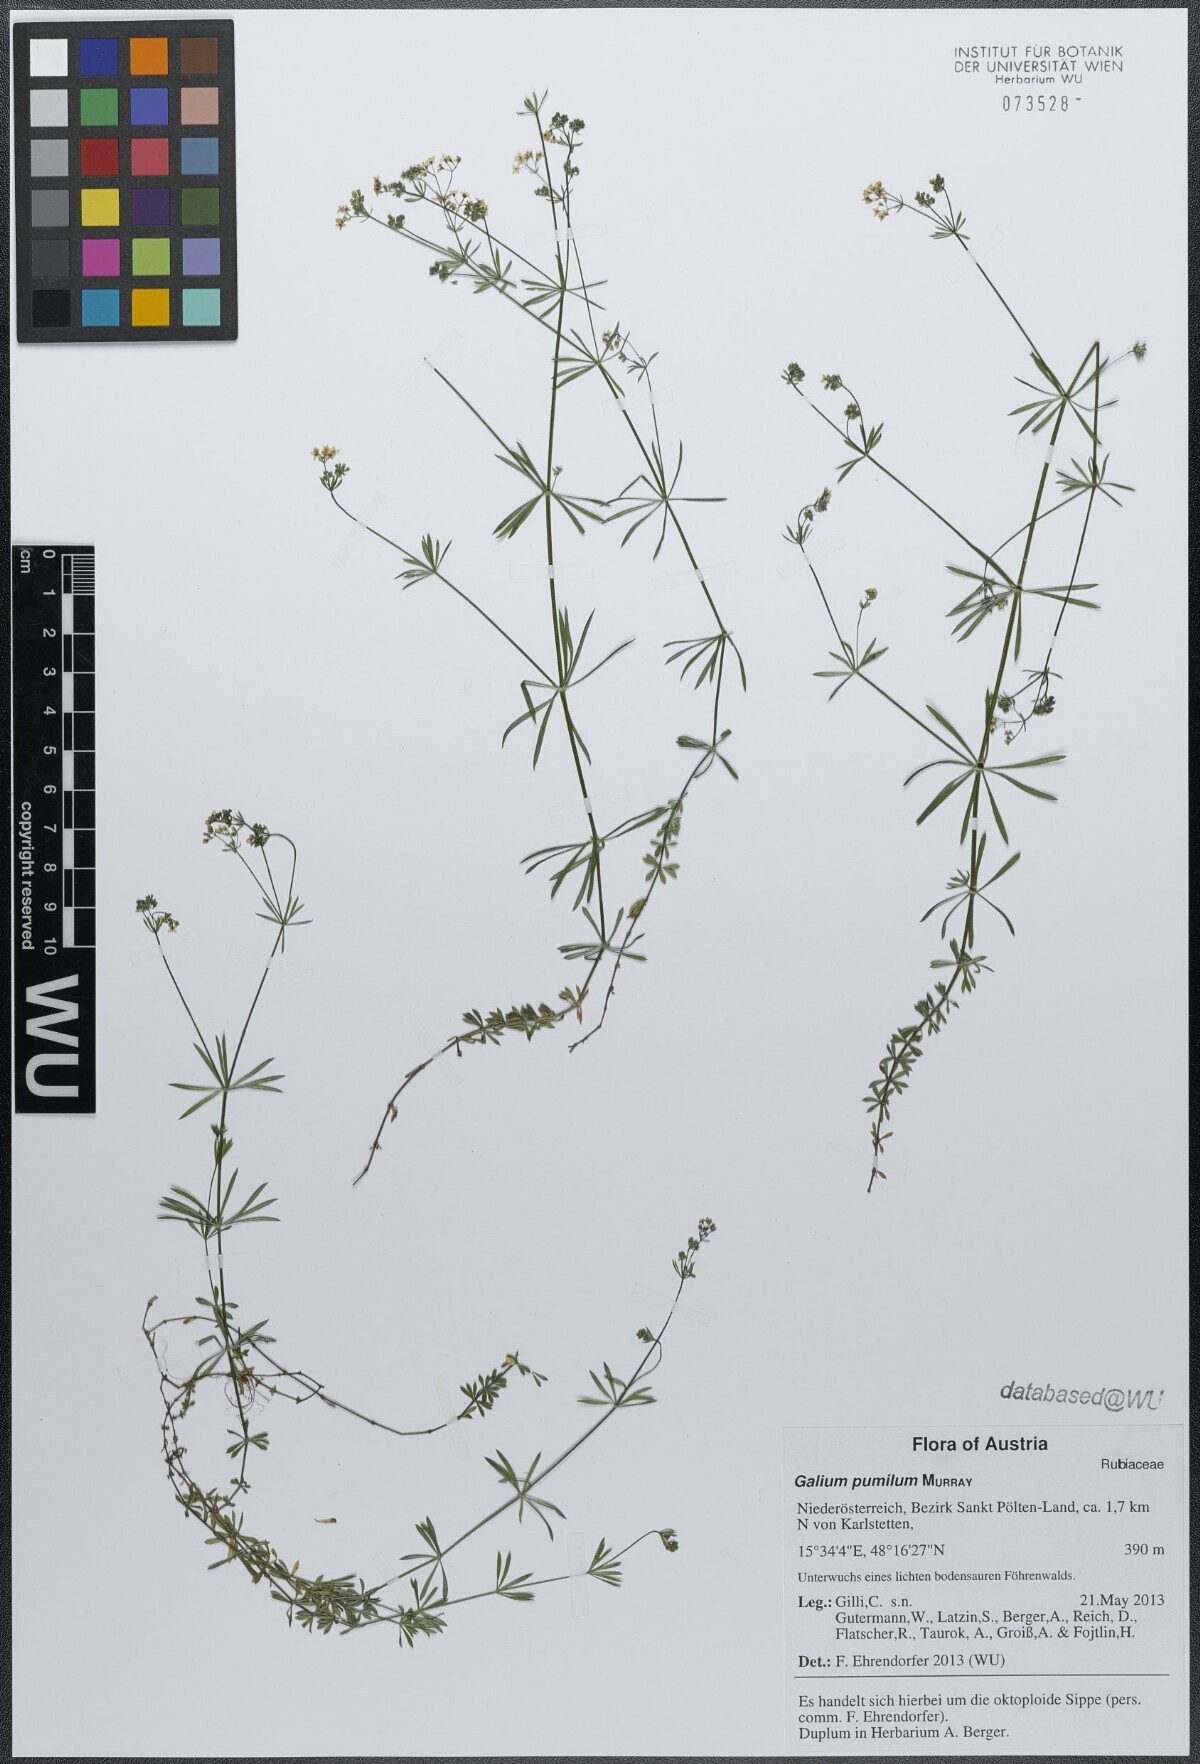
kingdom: Plantae
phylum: Tracheophyta
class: Magnoliopsida
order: Gentianales
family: Rubiaceae
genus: Galium
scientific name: Galium pumilum
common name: Slender bedstraw
